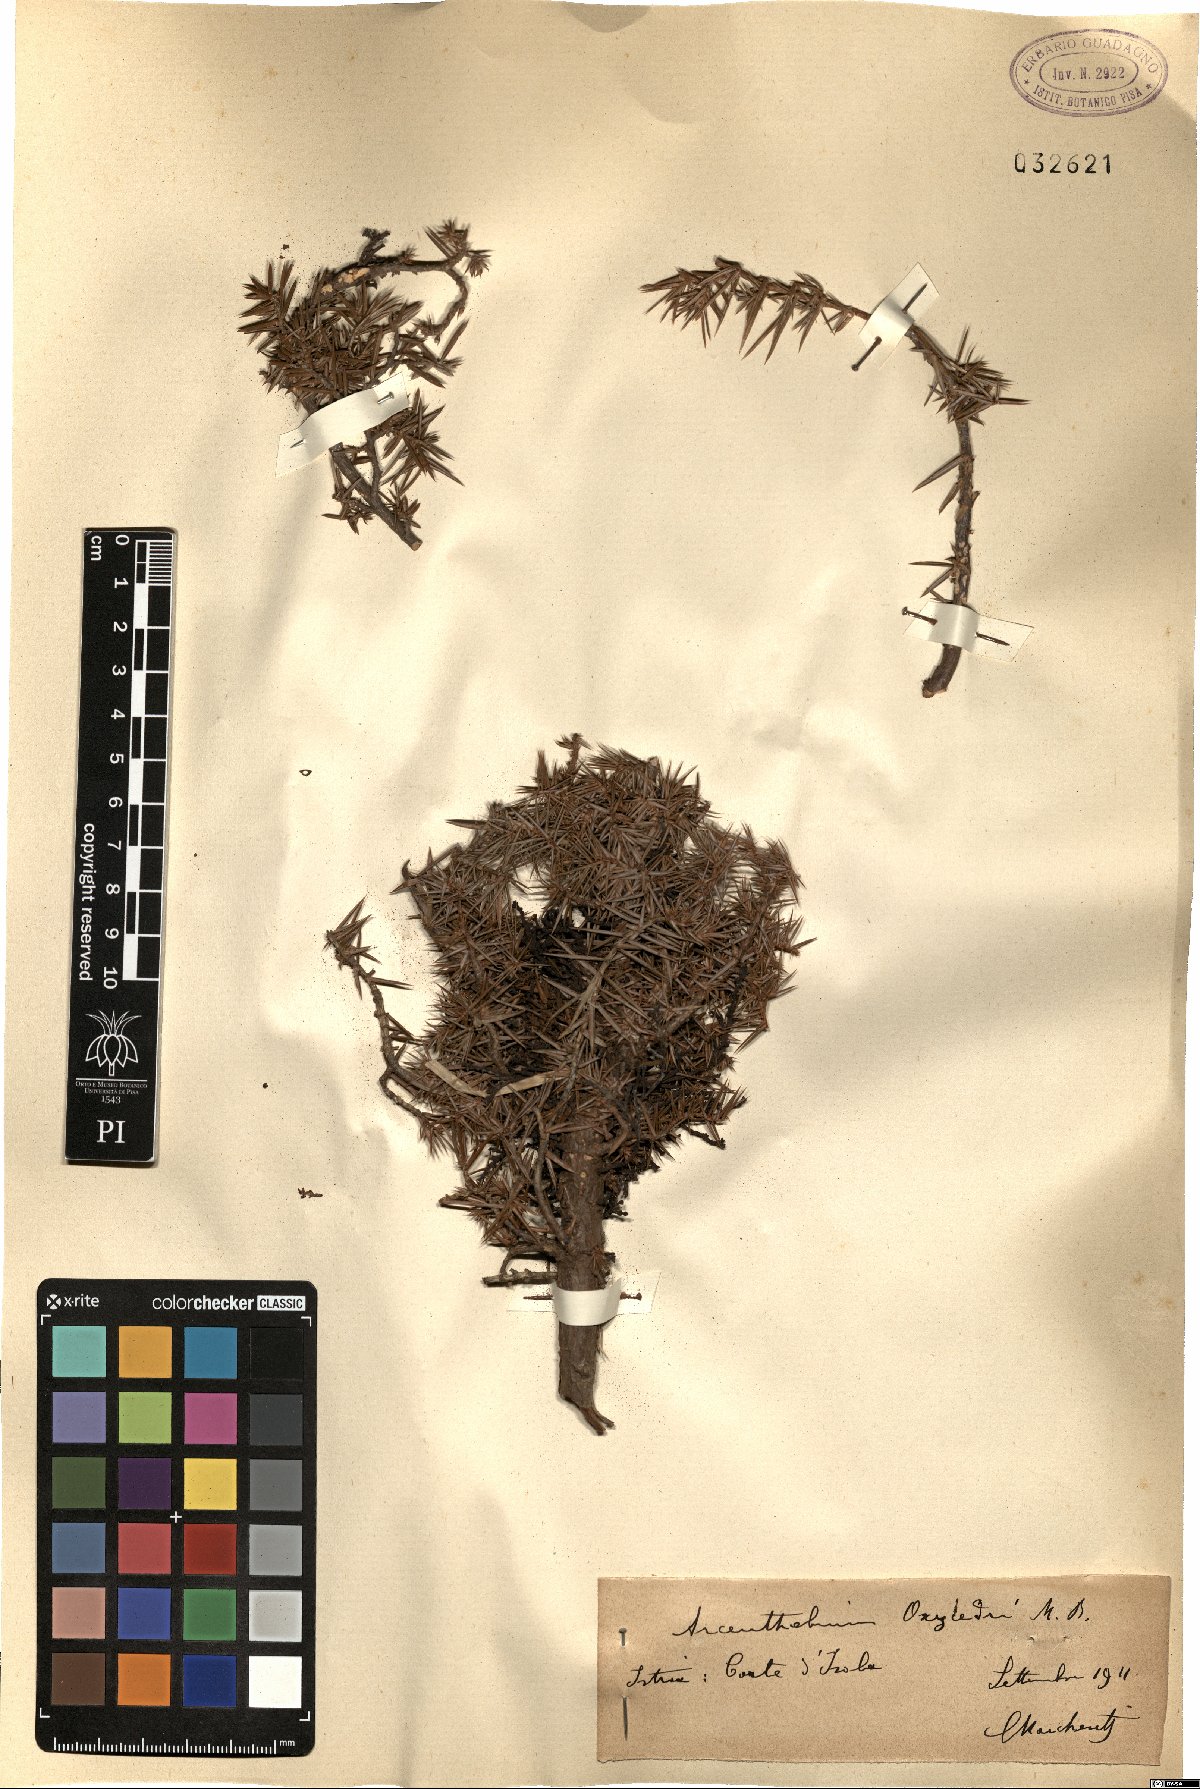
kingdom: Plantae
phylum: Tracheophyta
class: Magnoliopsida
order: Santalales
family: Viscaceae
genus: Arceuthobium
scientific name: Arceuthobium oxycedri
